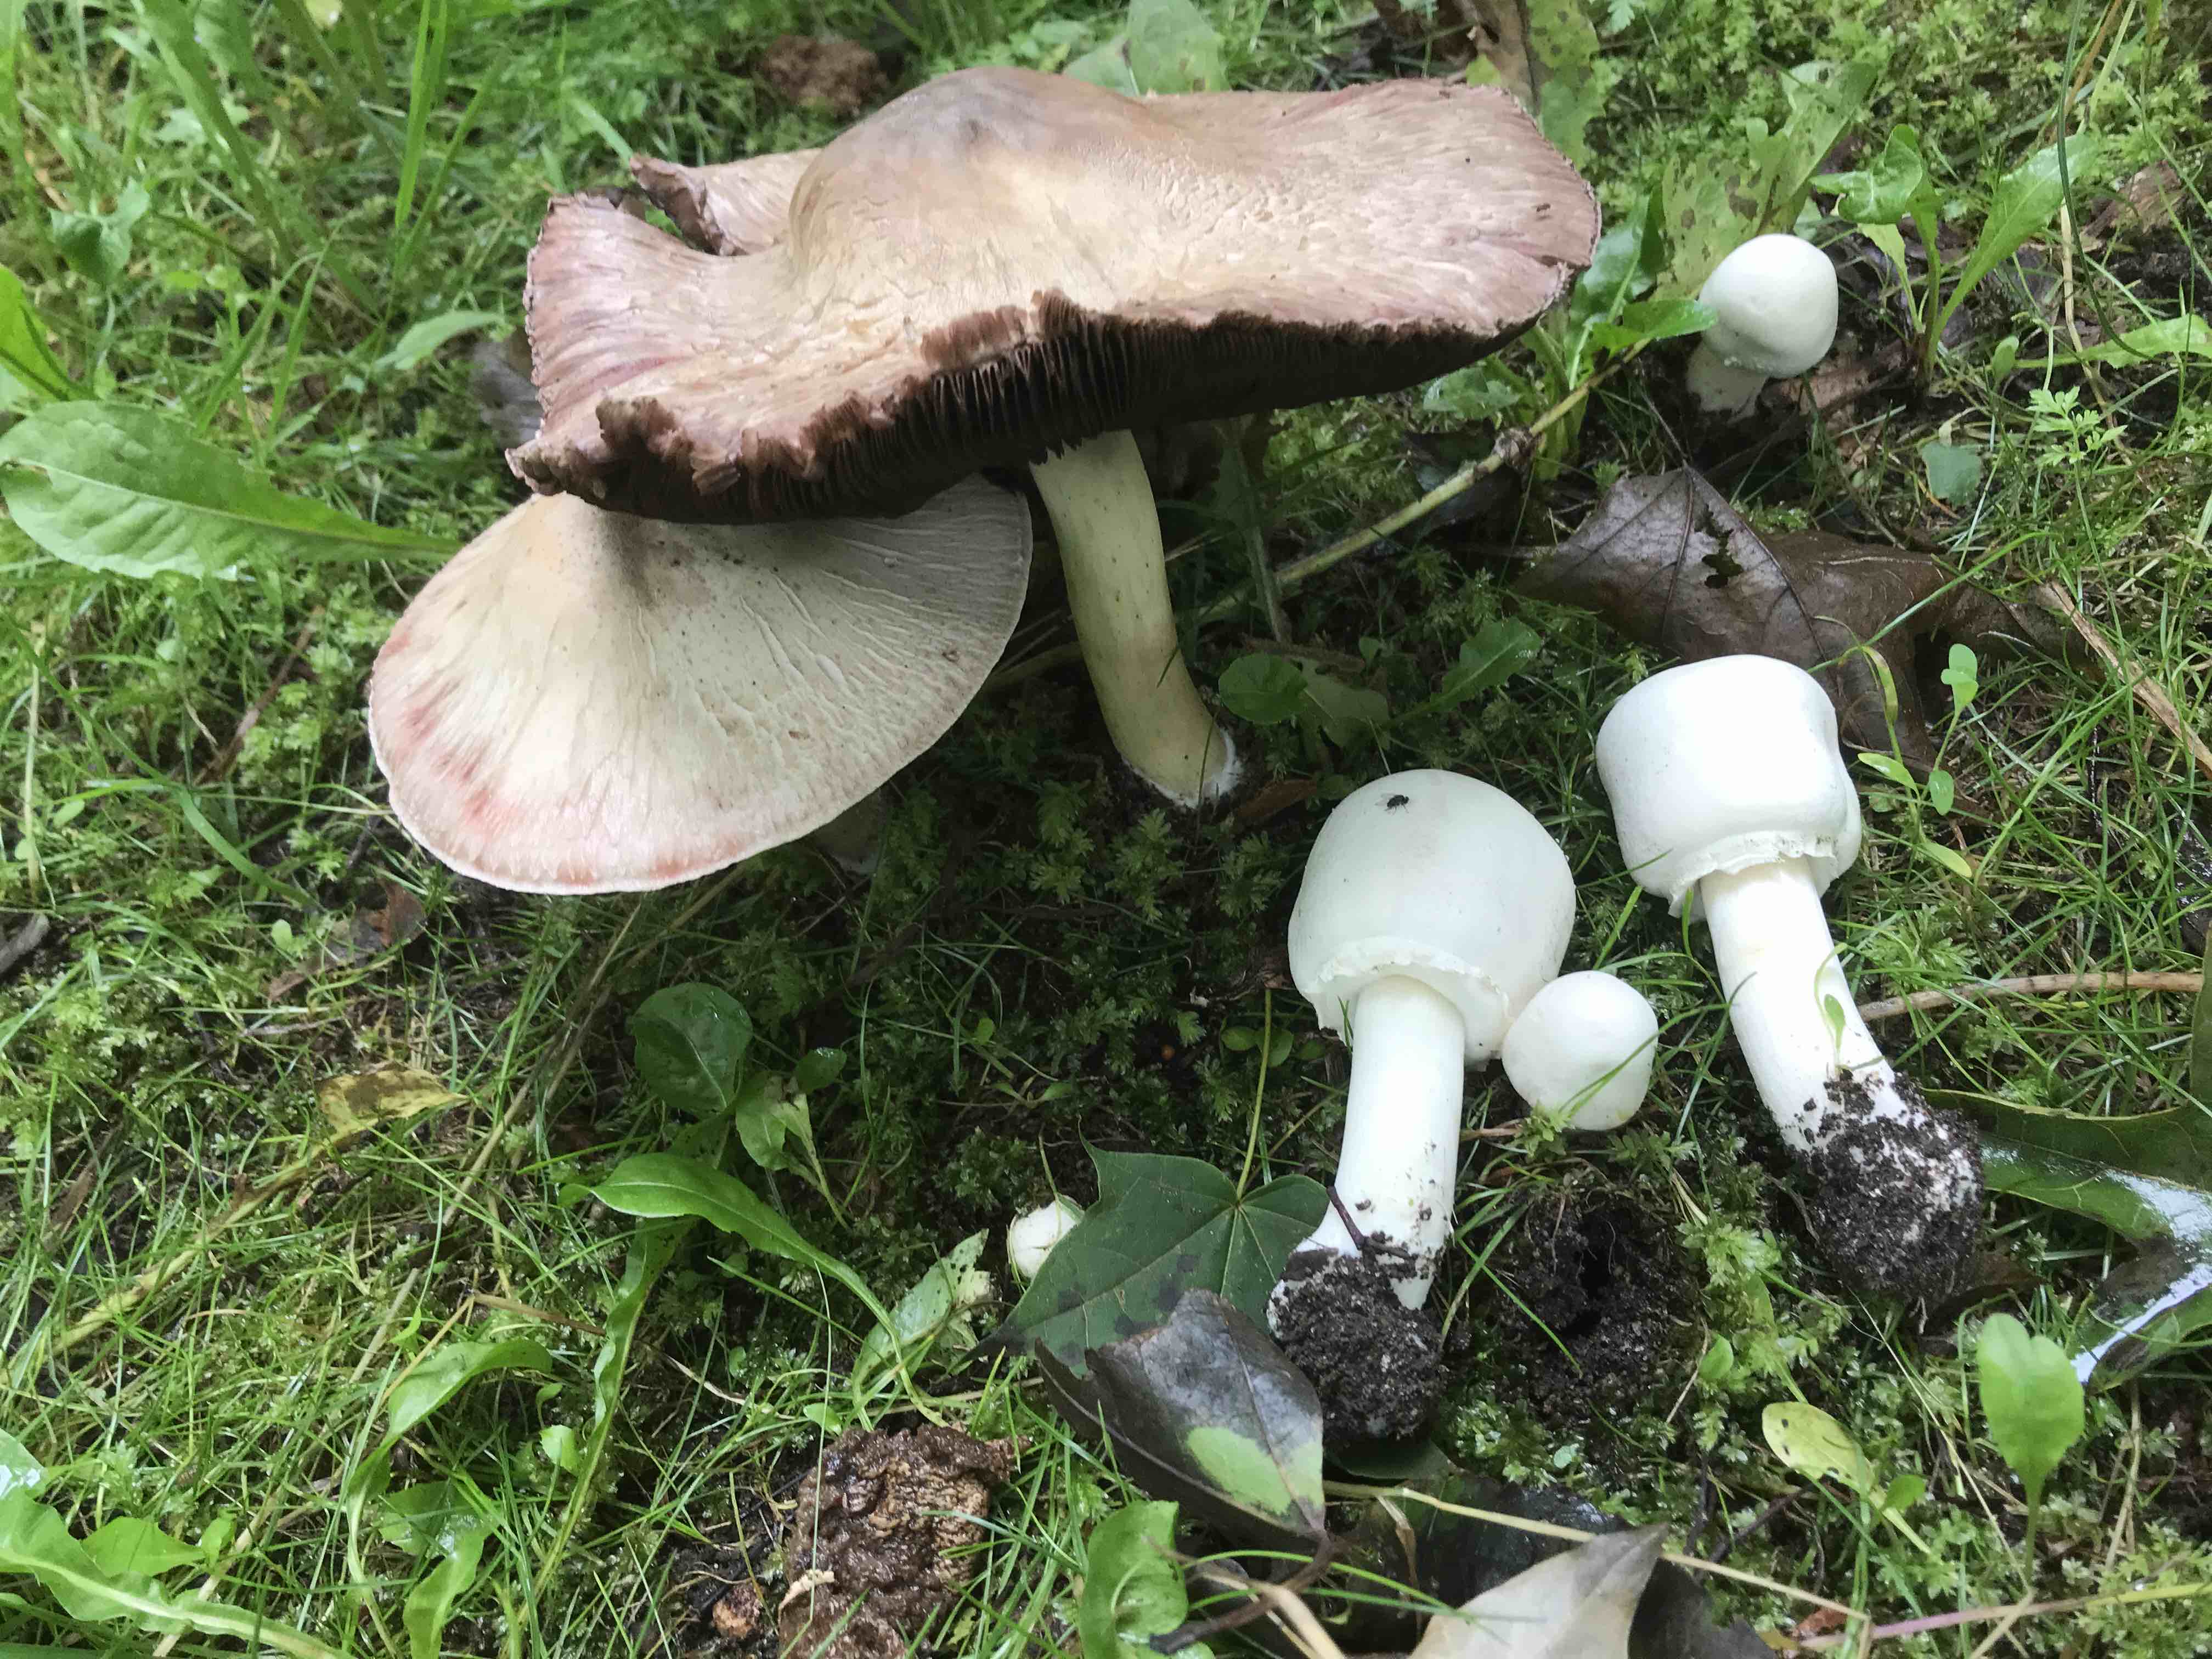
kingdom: Fungi
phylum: Basidiomycota
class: Agaricomycetes
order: Agaricales
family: Agaricaceae
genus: Agaricus
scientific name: Agaricus
